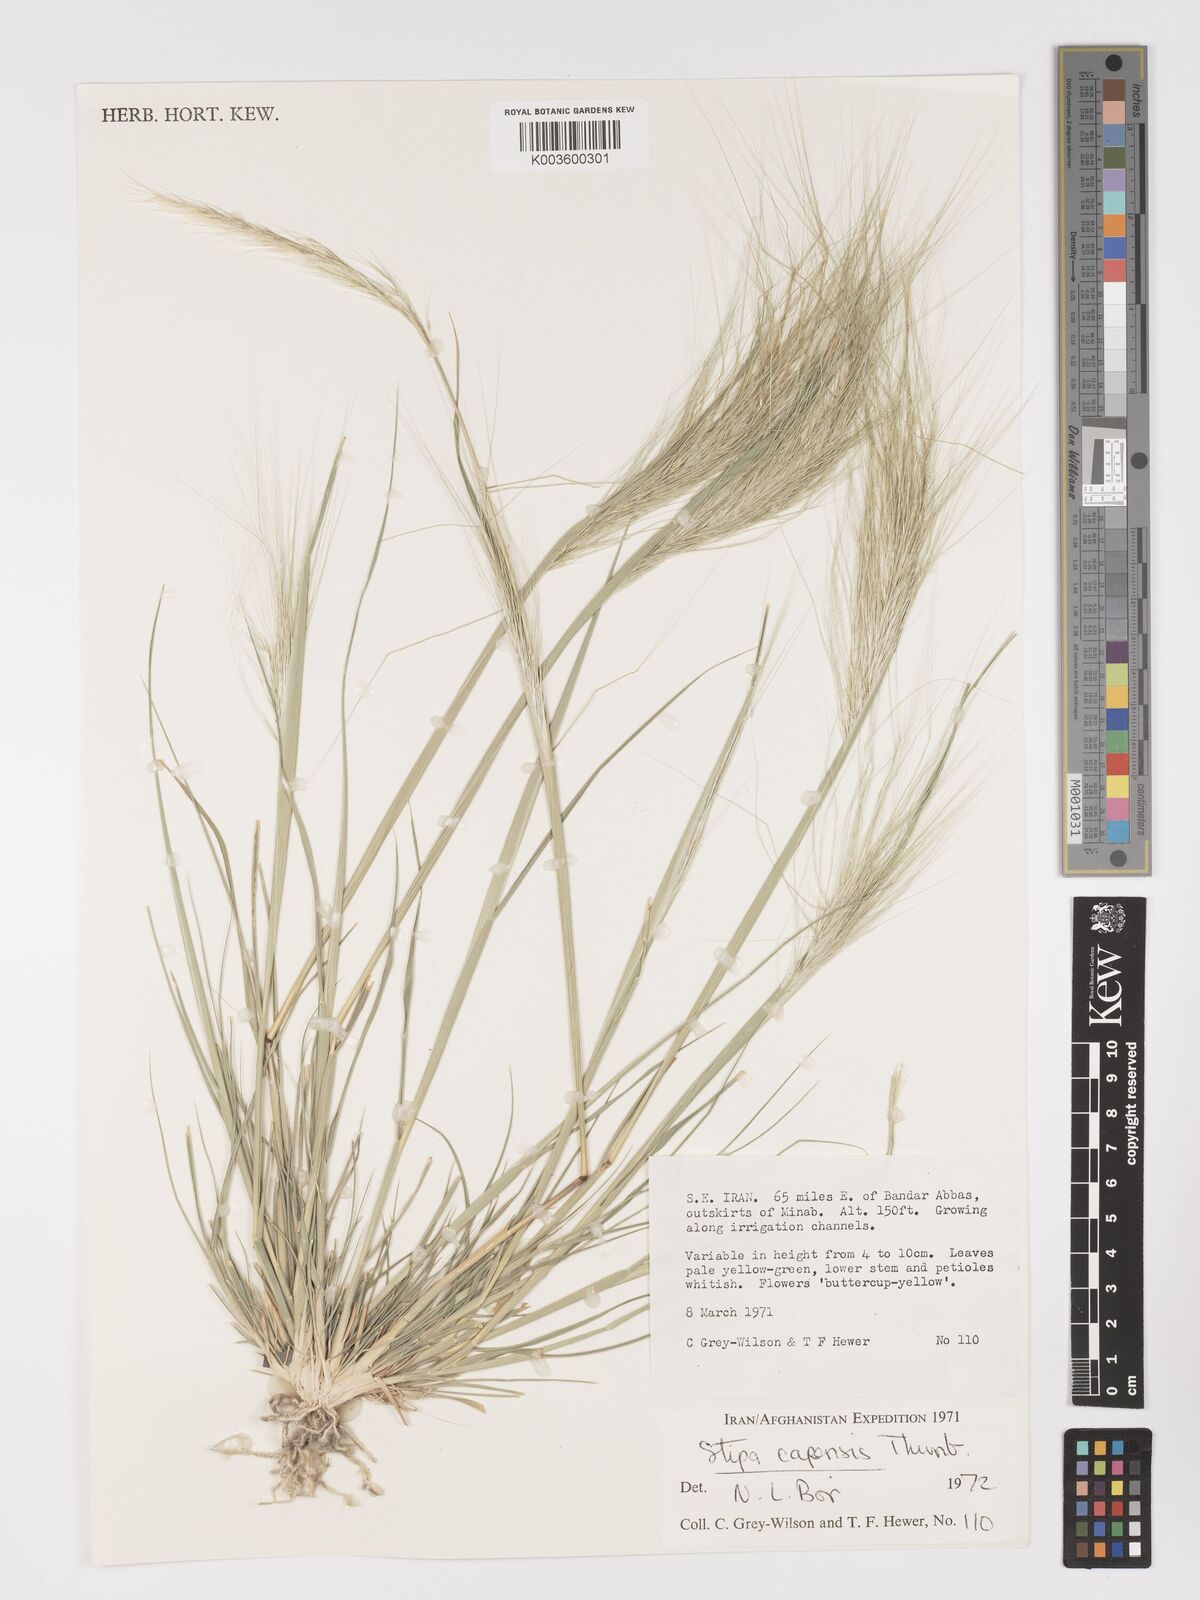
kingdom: Plantae
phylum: Tracheophyta
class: Liliopsida
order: Poales
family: Poaceae
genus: Stipellula
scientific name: Stipellula capensis
